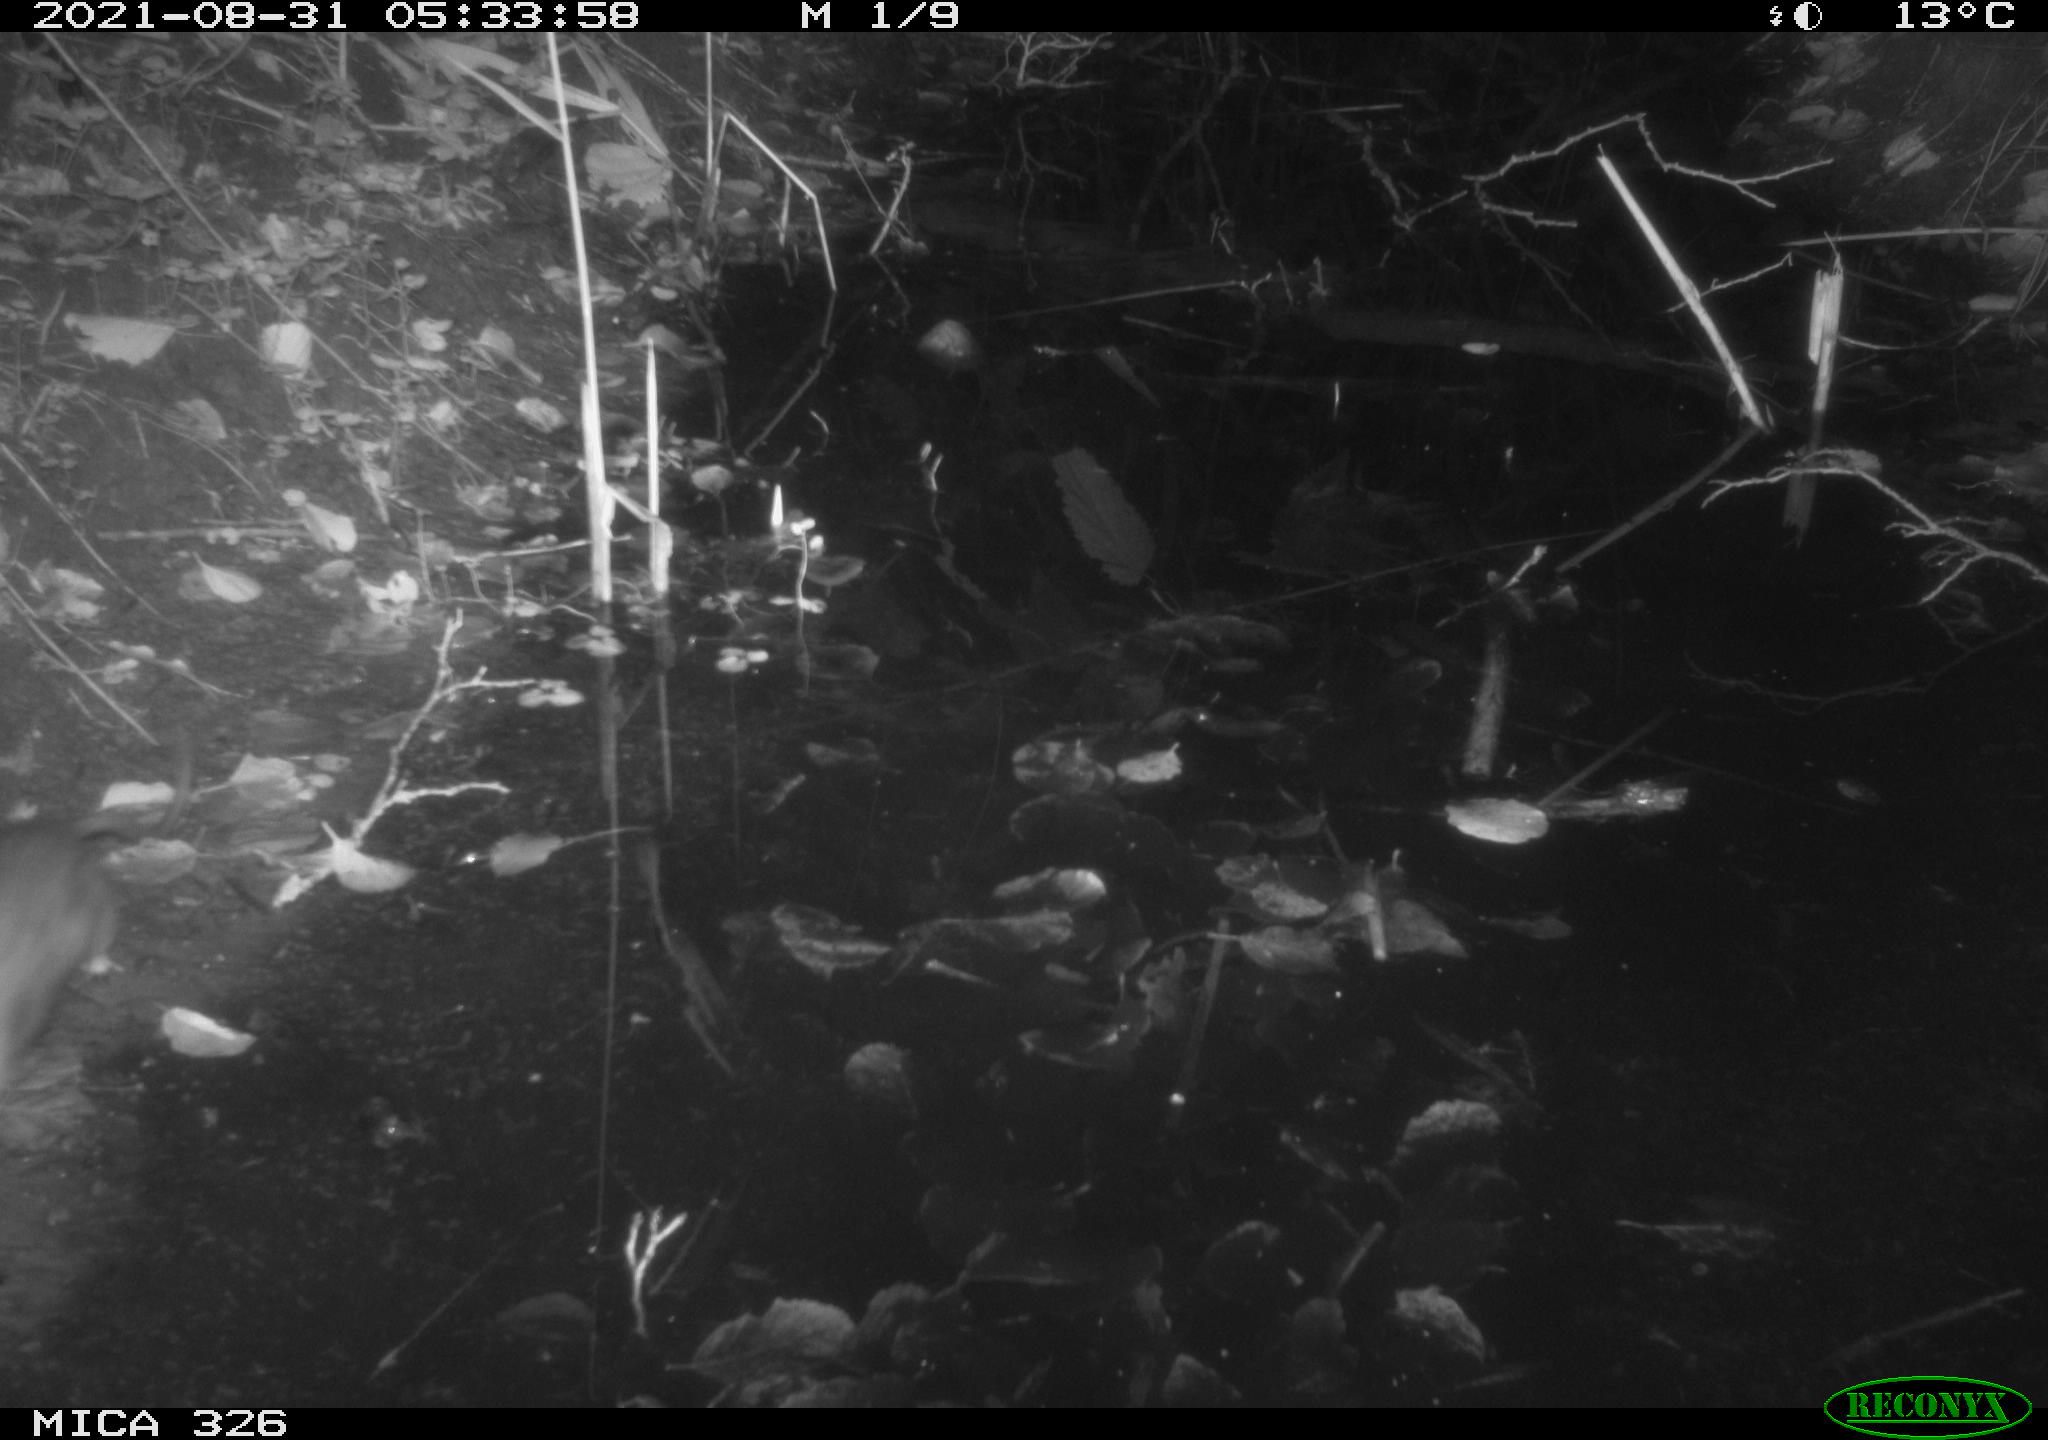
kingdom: Animalia
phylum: Chordata
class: Mammalia
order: Rodentia
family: Muridae
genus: Rattus
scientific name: Rattus norvegicus
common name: Brown rat
